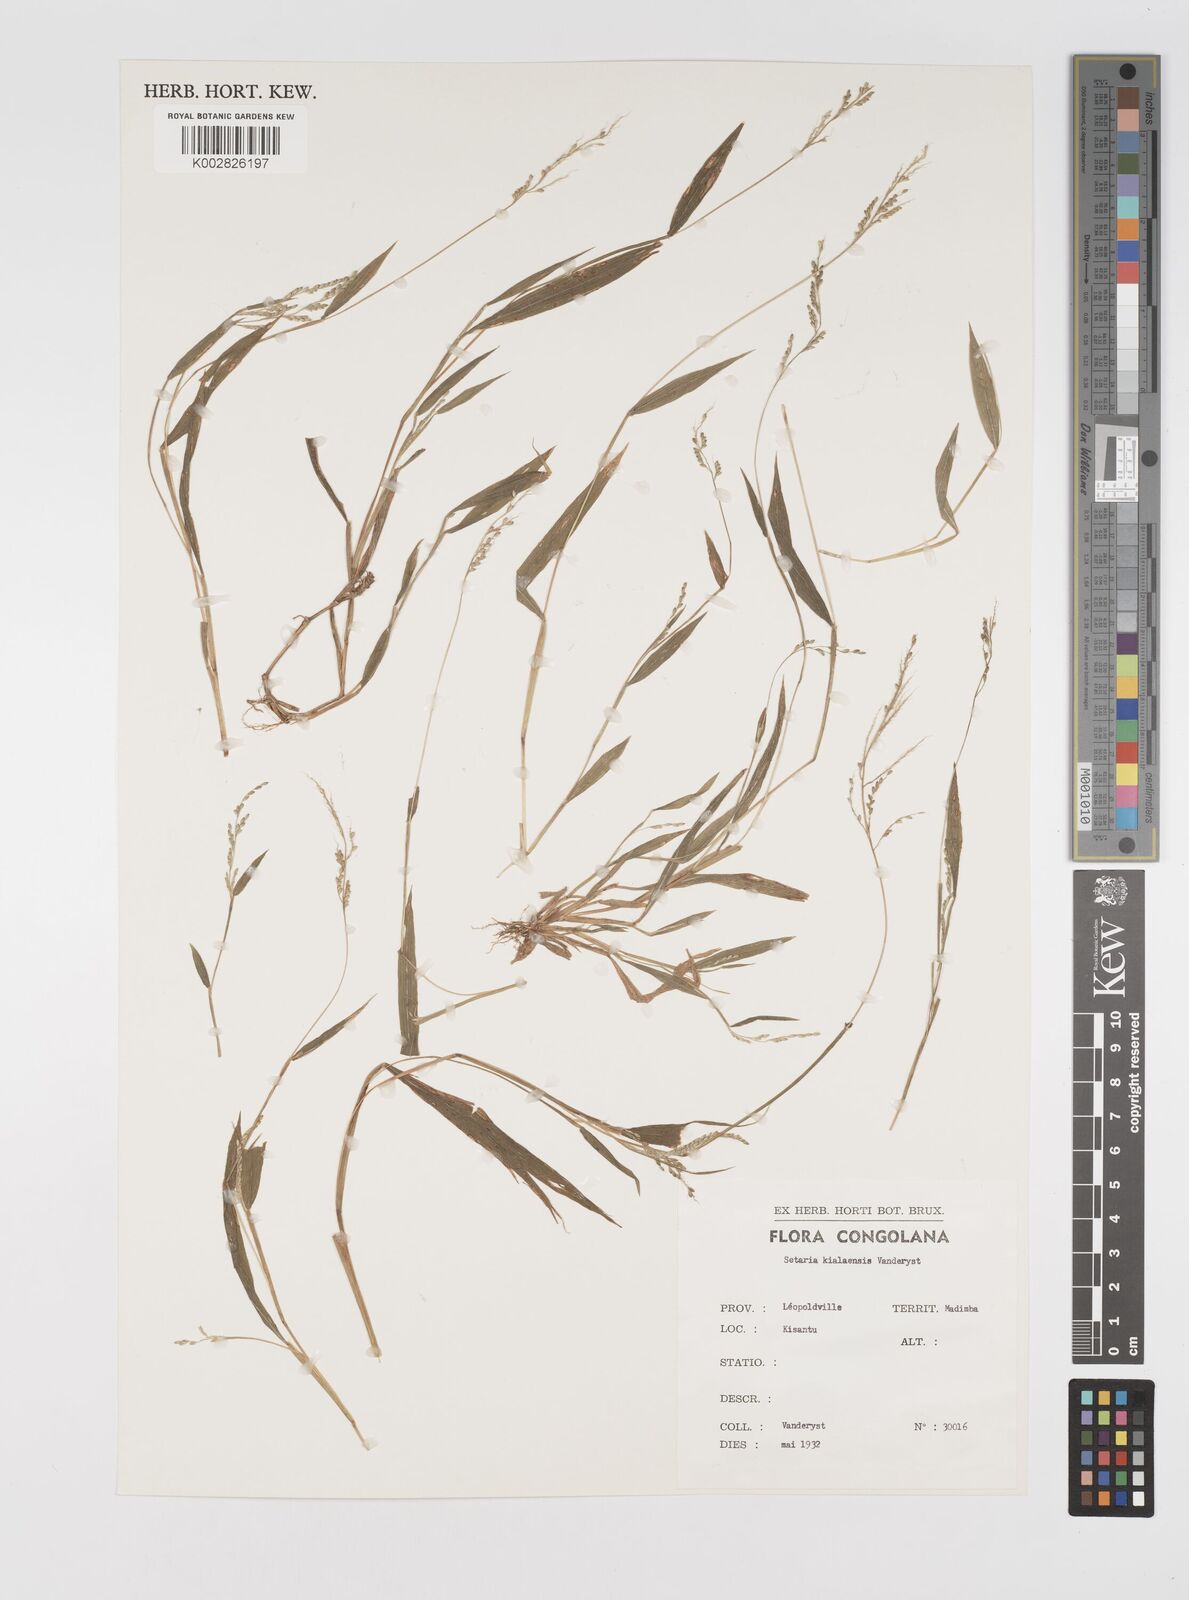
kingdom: Plantae
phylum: Tracheophyta
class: Liliopsida
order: Poales
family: Poaceae
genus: Setaria
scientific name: Setaria homonyma
